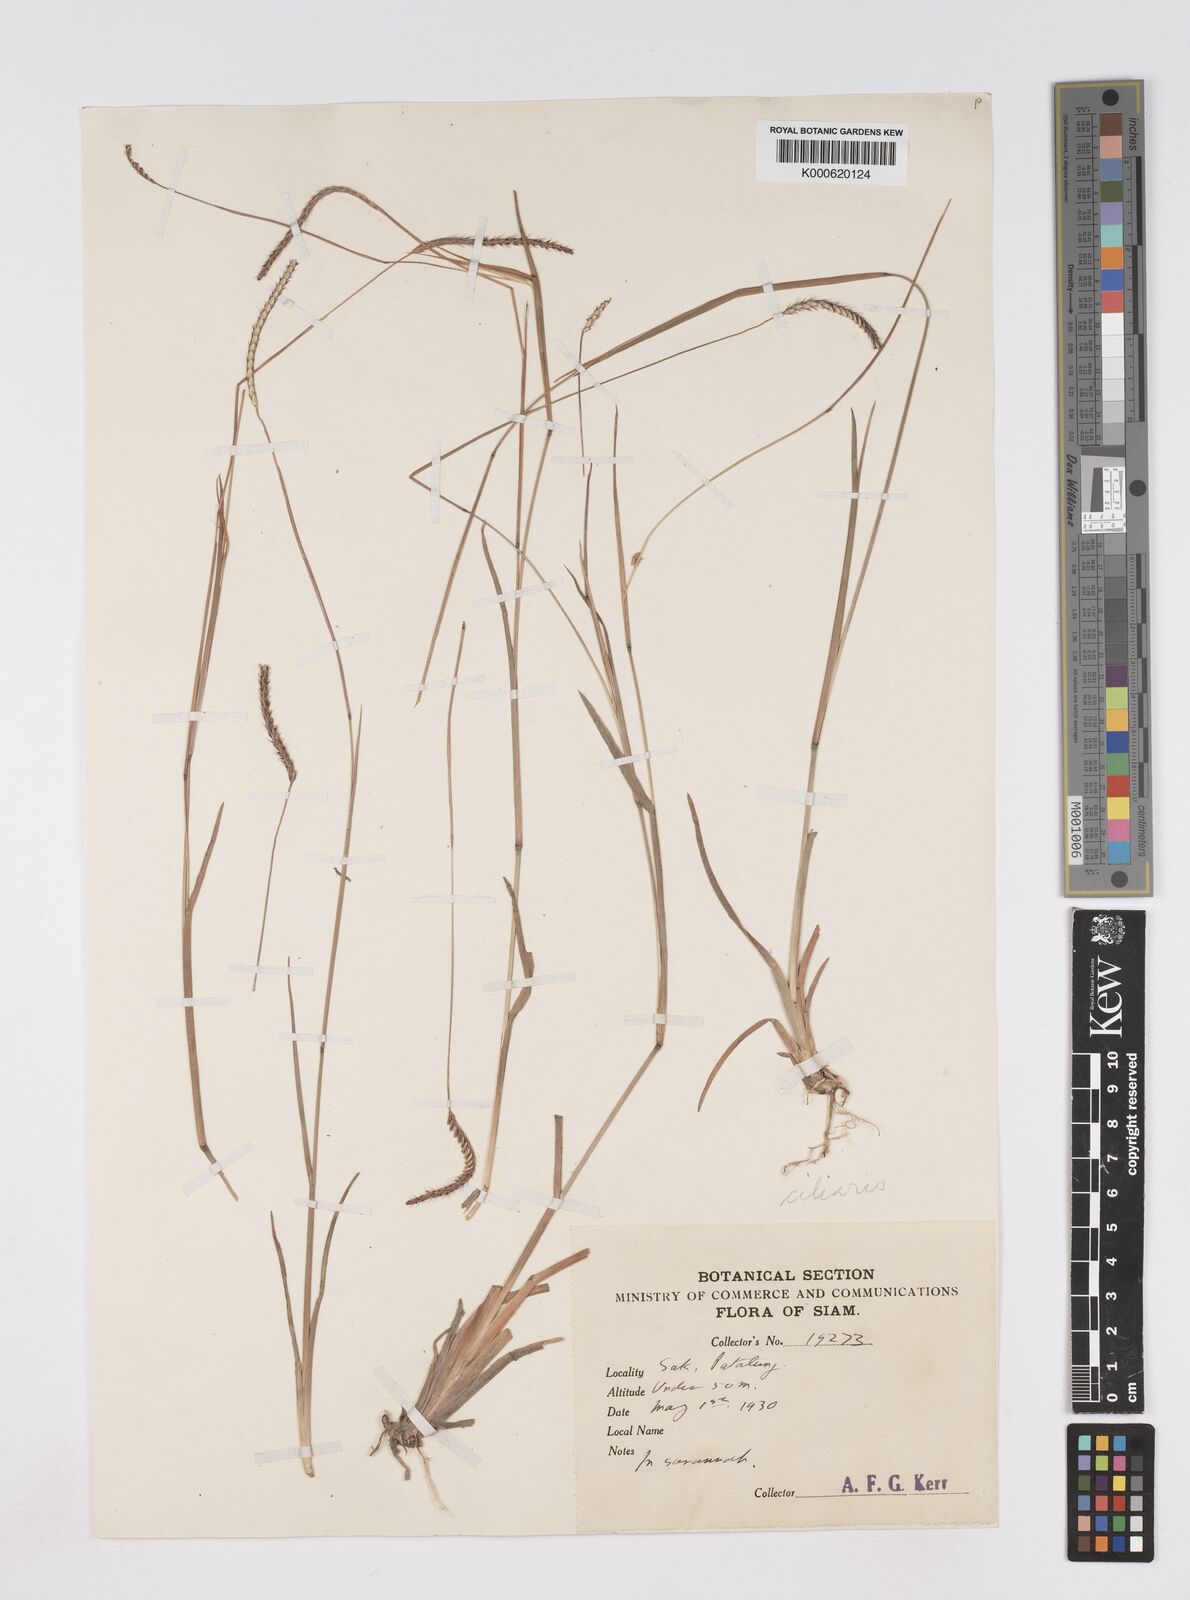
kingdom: Plantae
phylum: Tracheophyta
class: Liliopsida
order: Poales
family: Poaceae
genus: Eremochloa
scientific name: Eremochloa ciliaris
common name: Fringed centipede grass
